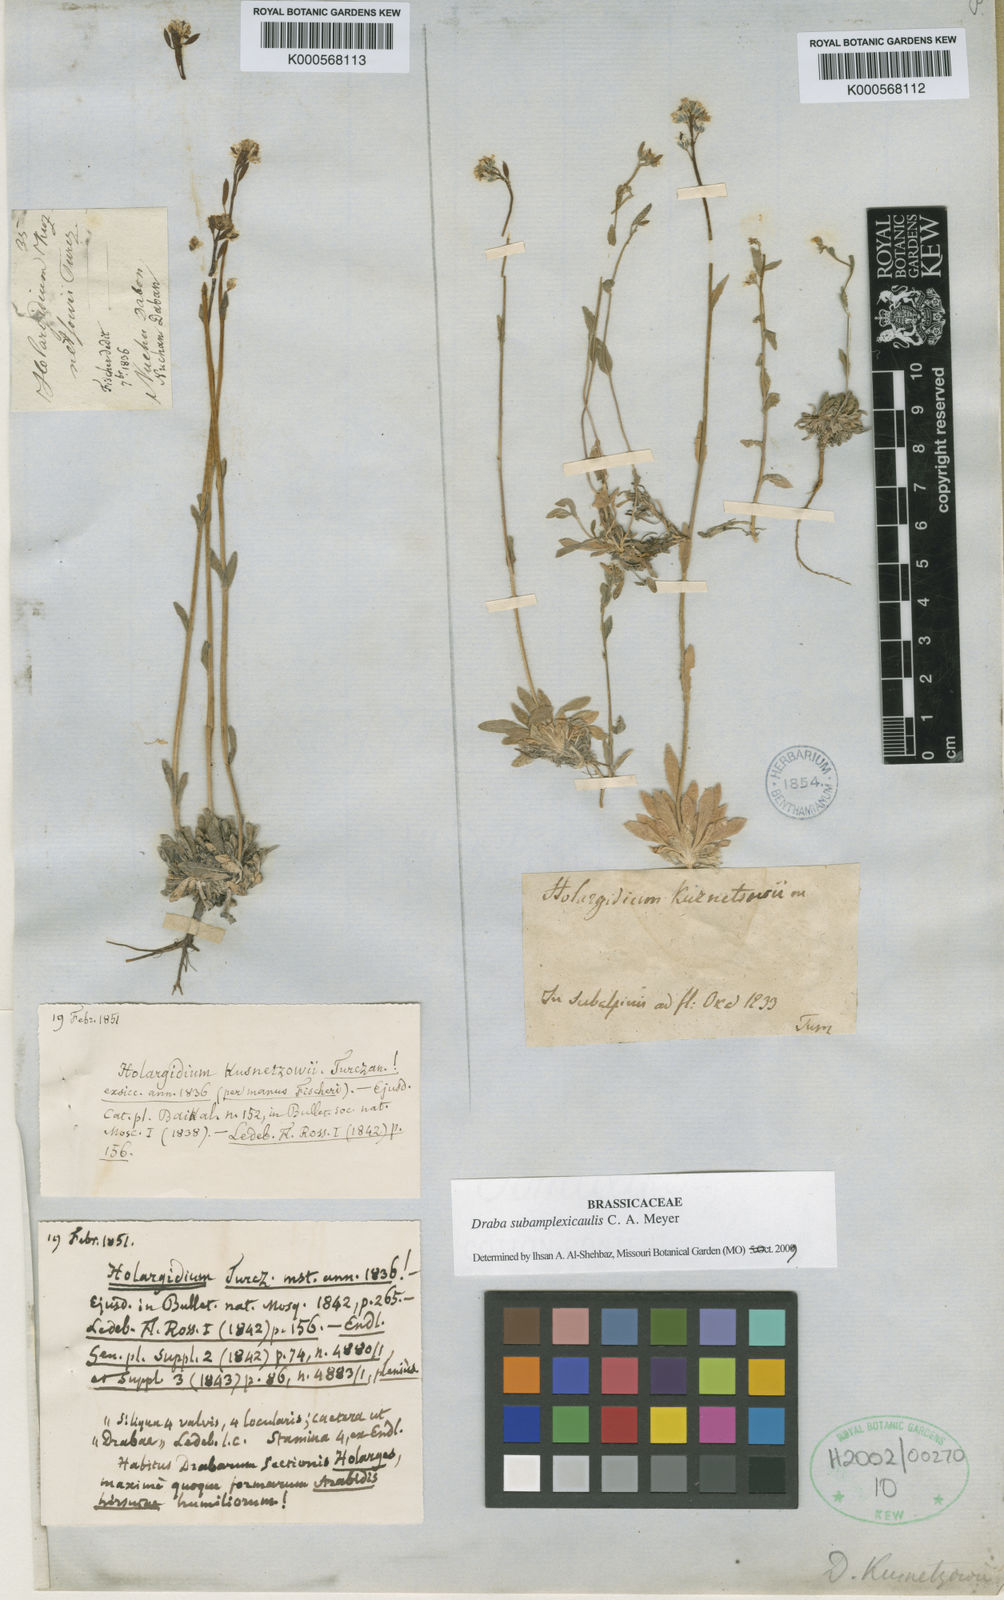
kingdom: Plantae
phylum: Tracheophyta
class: Magnoliopsida
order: Brassicales
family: Brassicaceae
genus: Draba
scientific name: Draba subamplexicaulis
